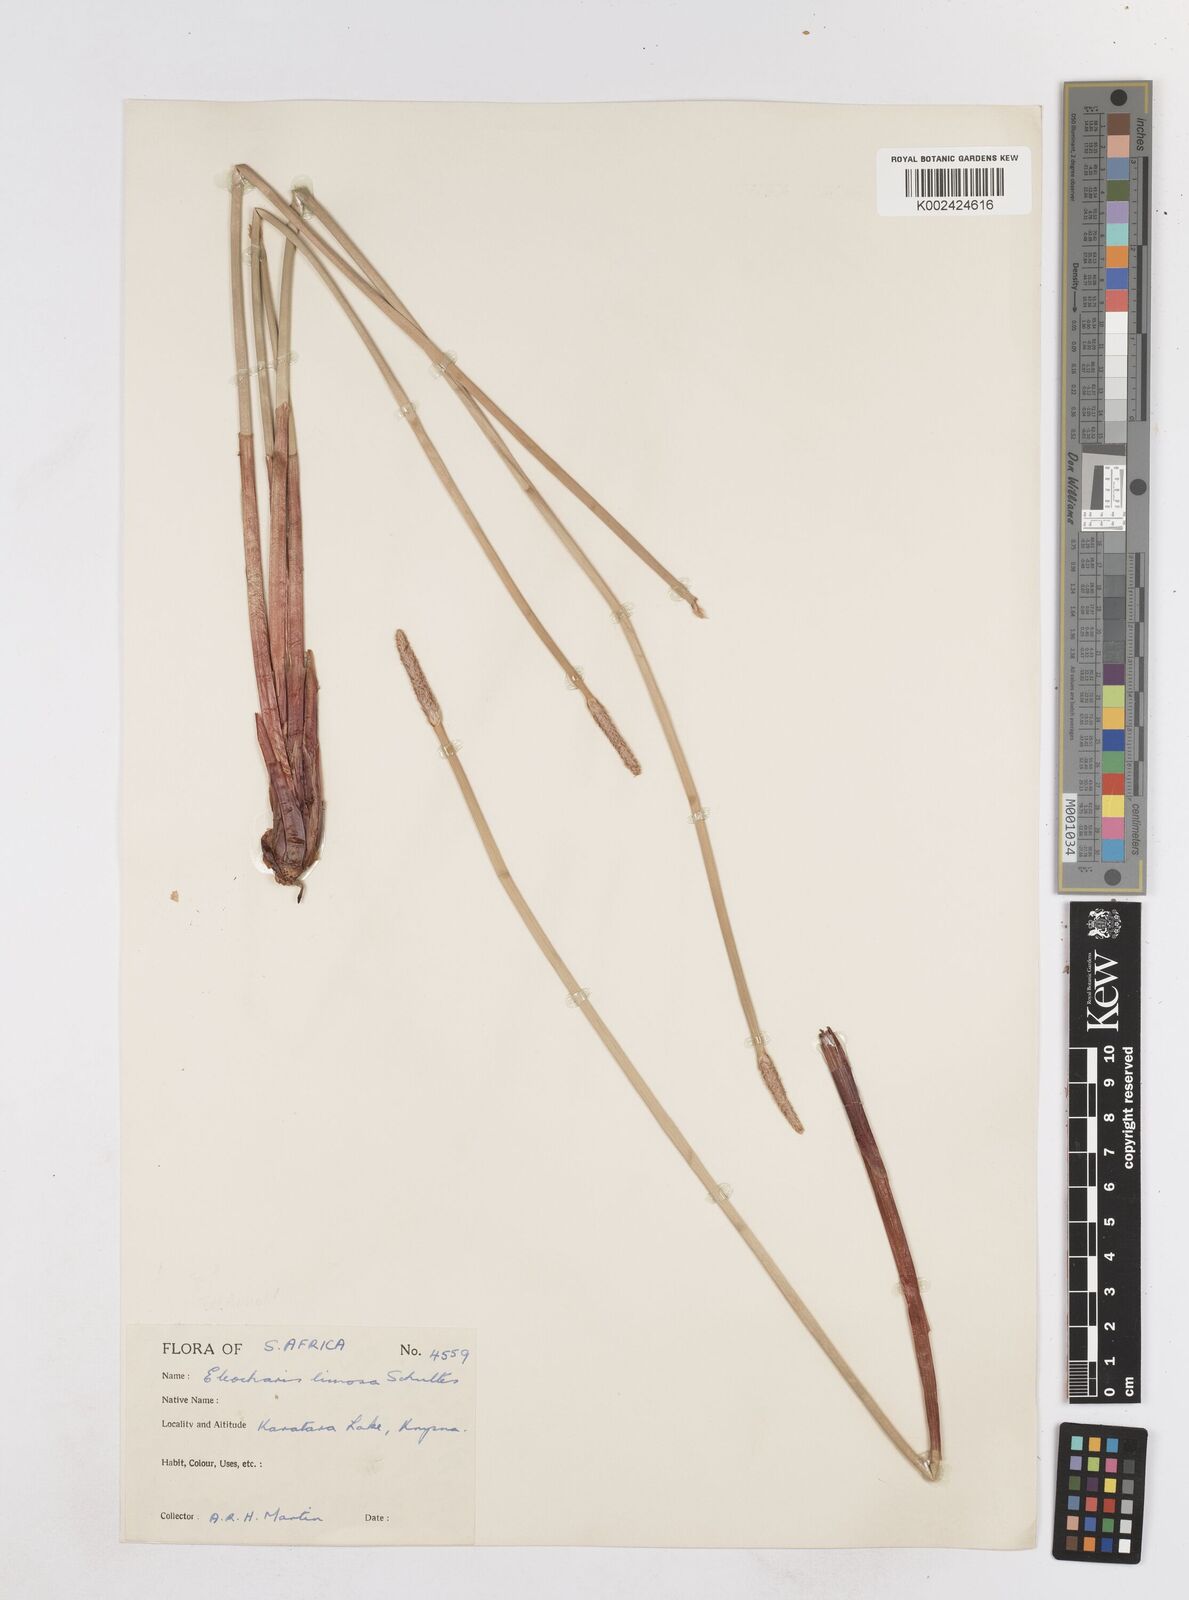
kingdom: Plantae
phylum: Tracheophyta
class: Liliopsida
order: Poales
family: Cyperaceae
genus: Eleocharis
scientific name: Eleocharis limosa
